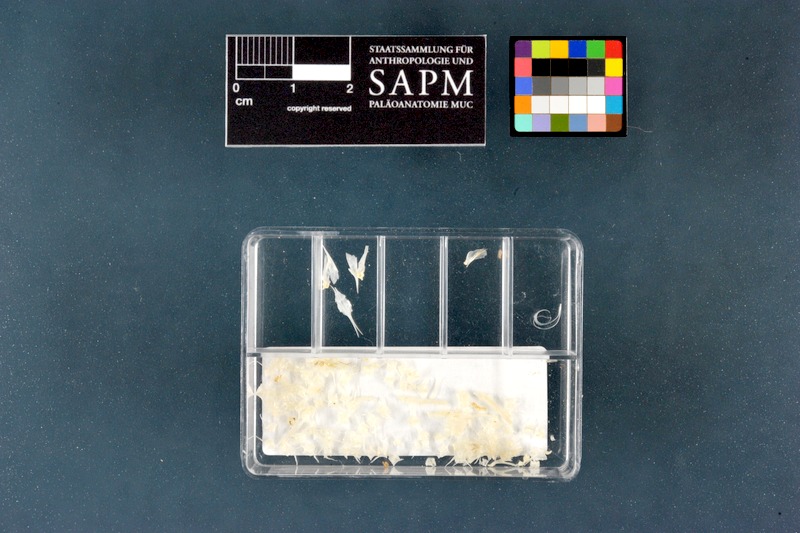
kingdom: Animalia
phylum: Chordata
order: Cypriniformes
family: Nemacheilidae
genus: Barbatula
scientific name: Barbatula barbatula
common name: Stone loach
